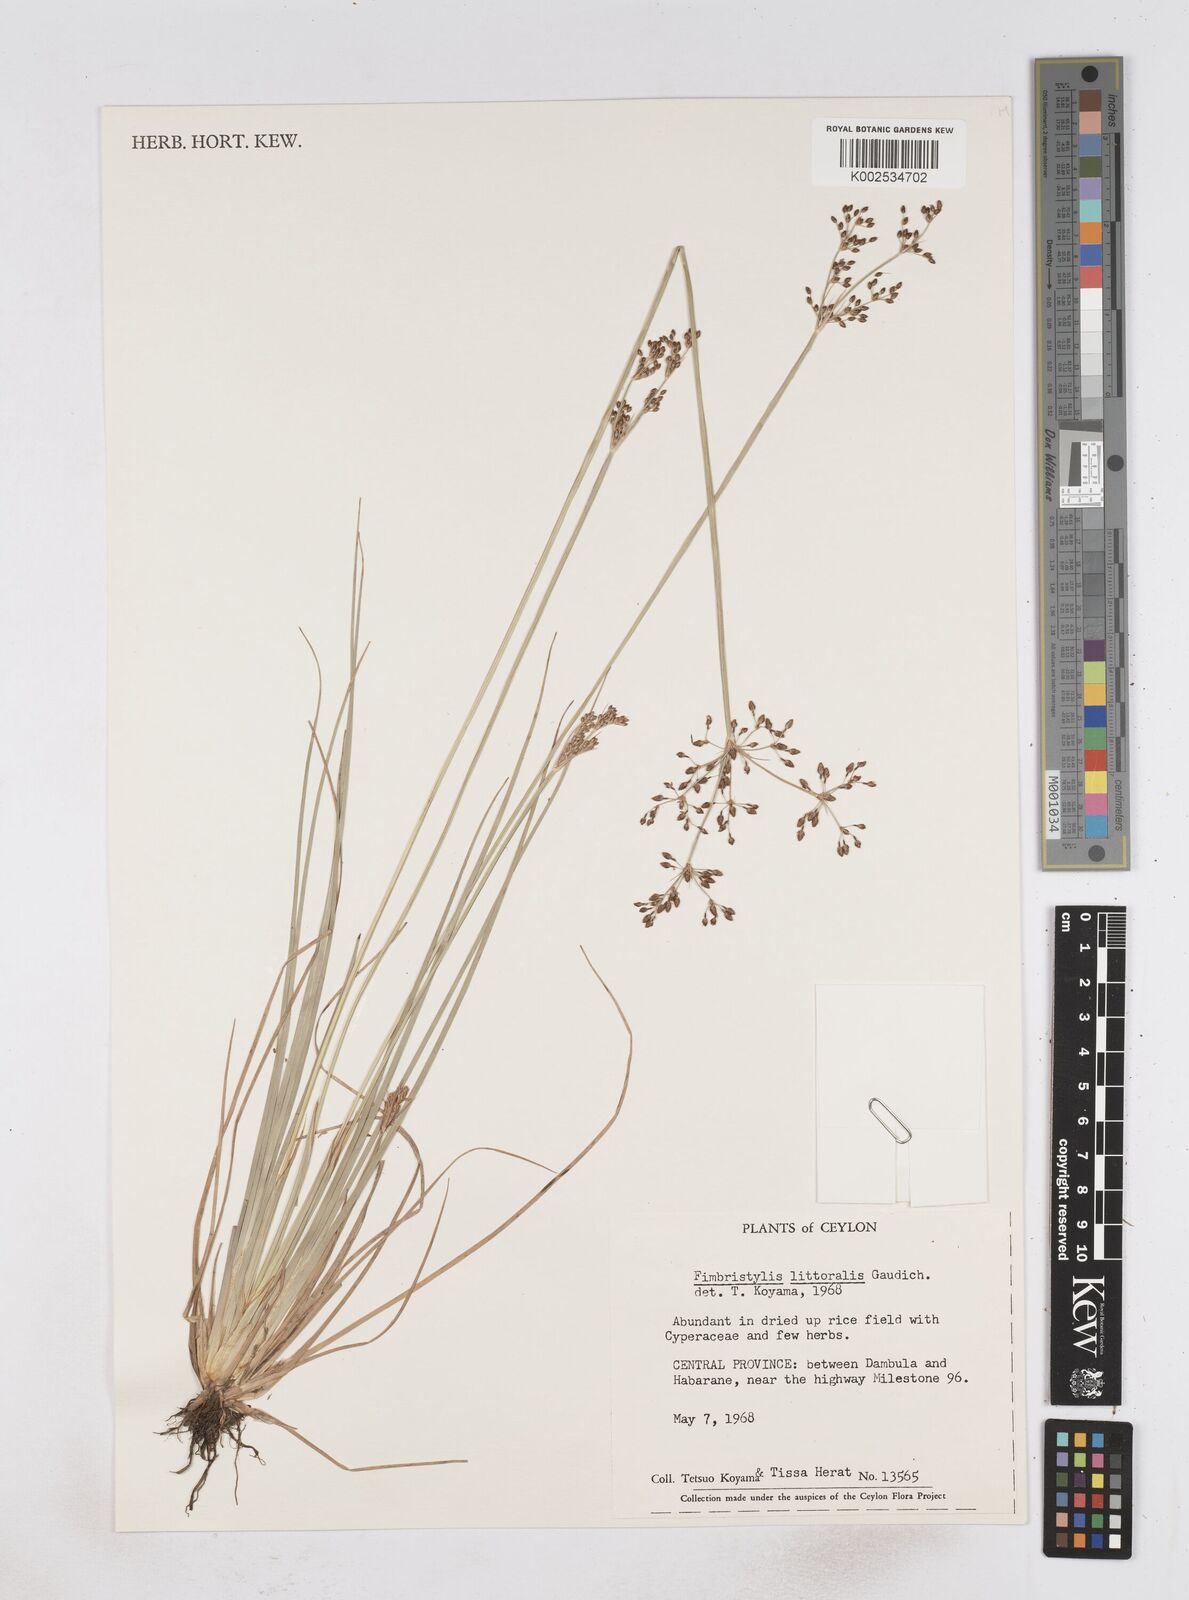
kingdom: Plantae
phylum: Tracheophyta
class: Liliopsida
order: Poales
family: Cyperaceae
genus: Fimbristylis
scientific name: Fimbristylis littoralis
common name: Fimbry
